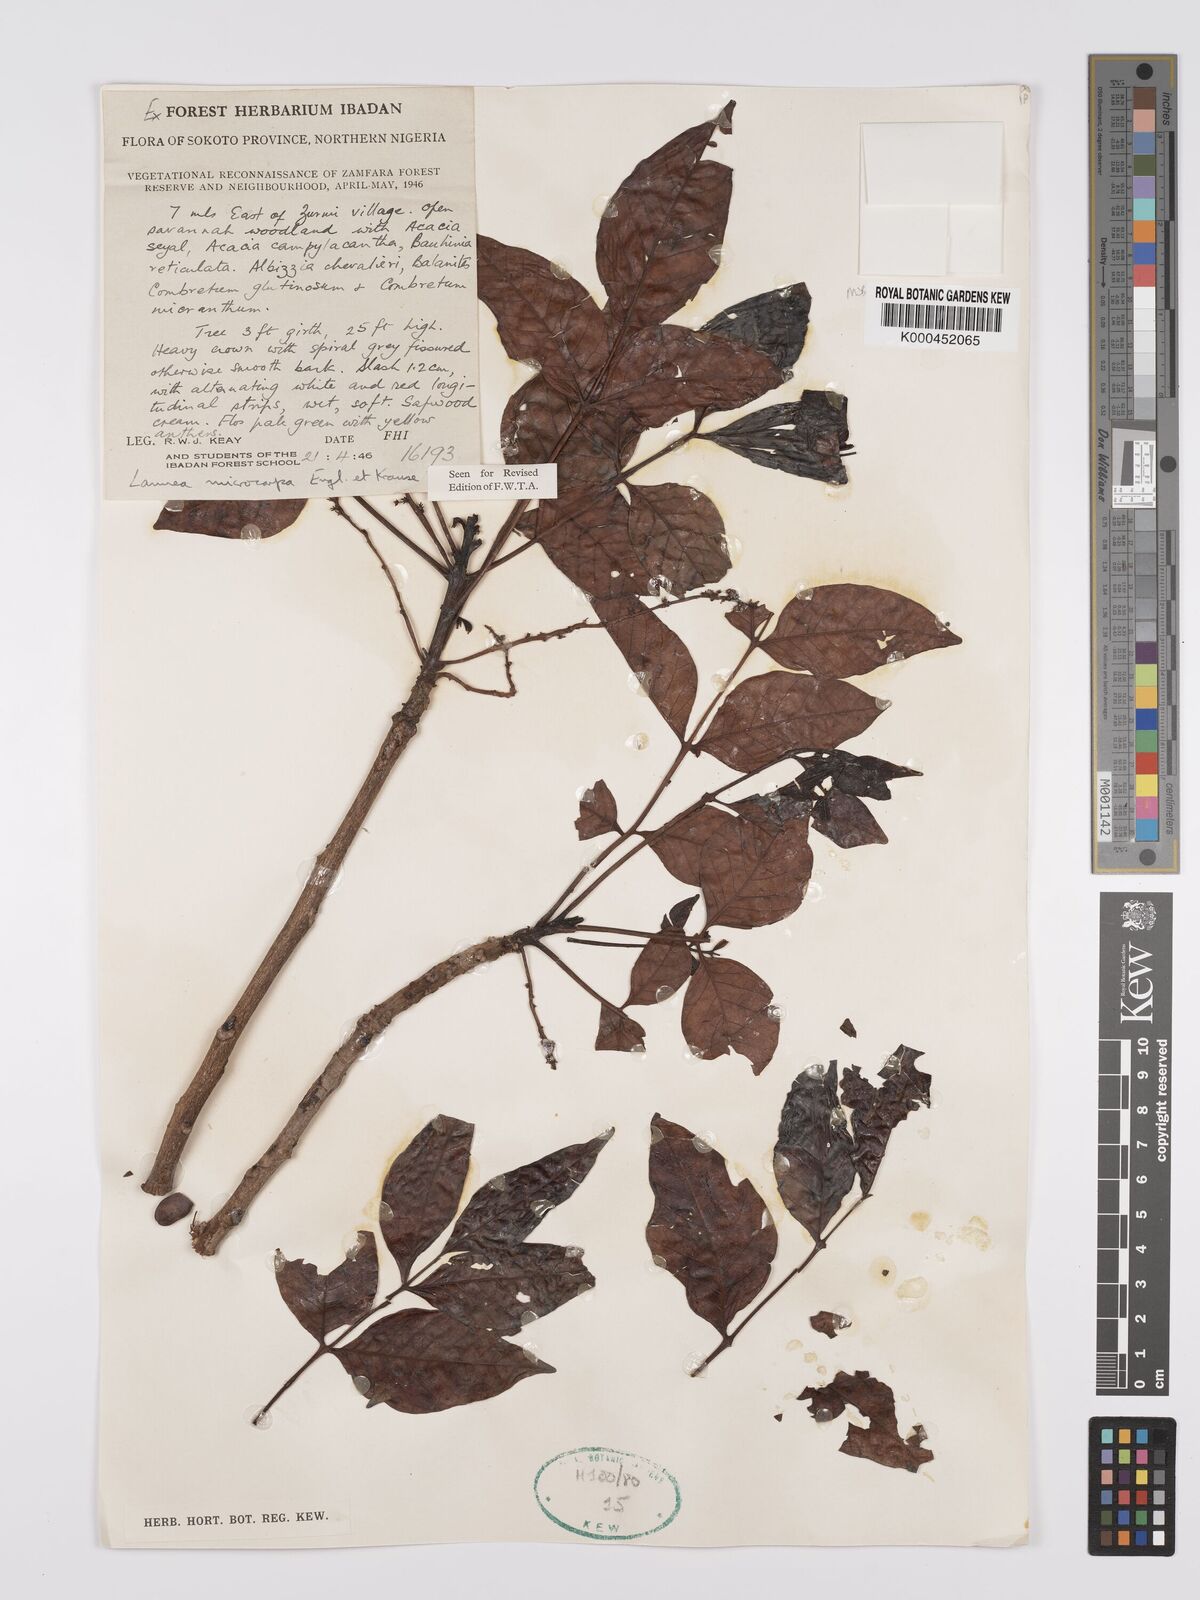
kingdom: Plantae
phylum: Tracheophyta
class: Magnoliopsida
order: Sapindales
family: Anacardiaceae
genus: Lannea
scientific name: Lannea microcarpa
